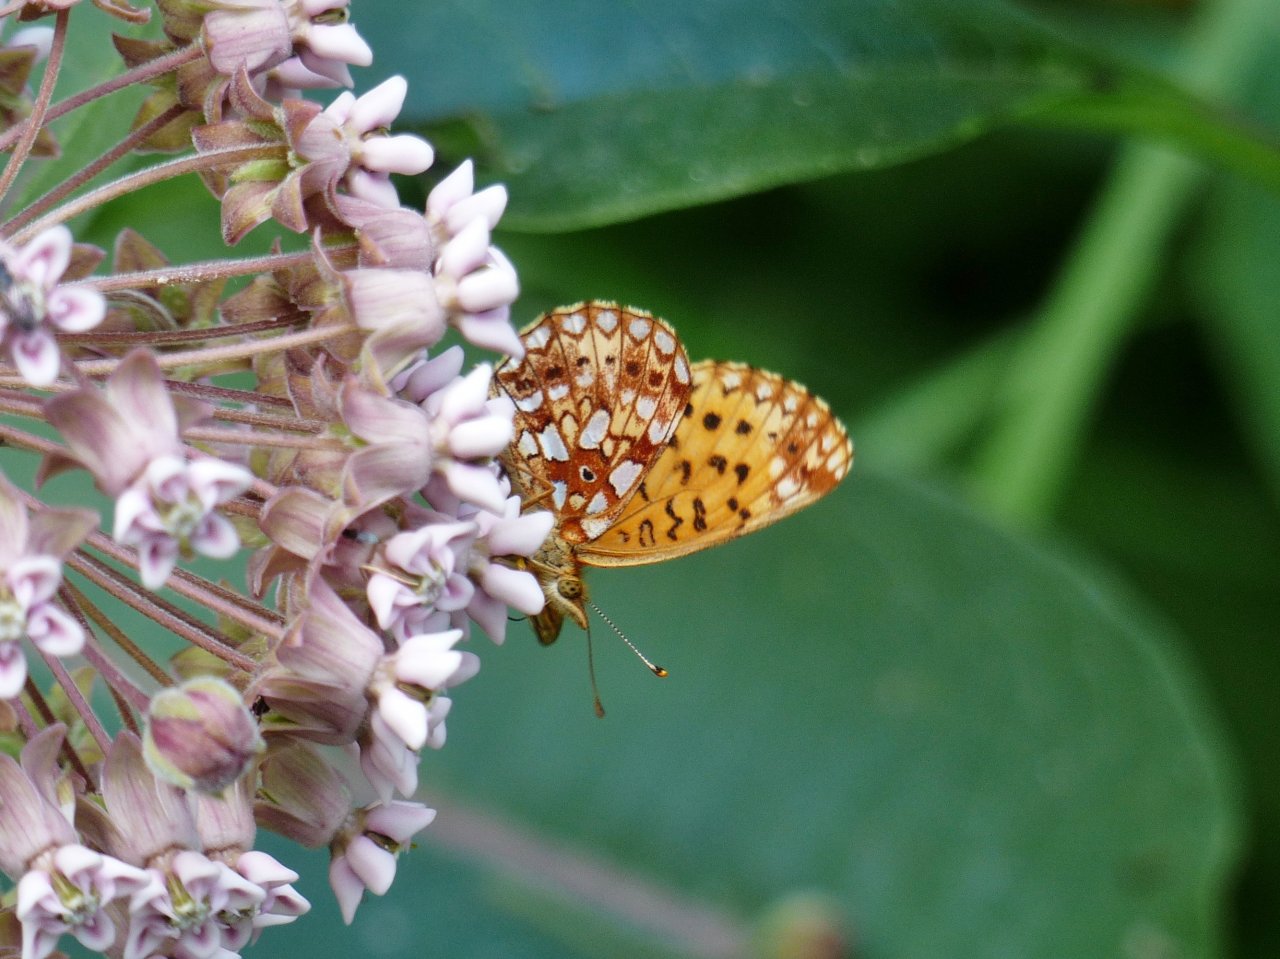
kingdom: Animalia
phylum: Arthropoda
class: Insecta
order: Lepidoptera
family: Nymphalidae
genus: Boloria
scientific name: Boloria selene
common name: Silver-bordered Fritillary
